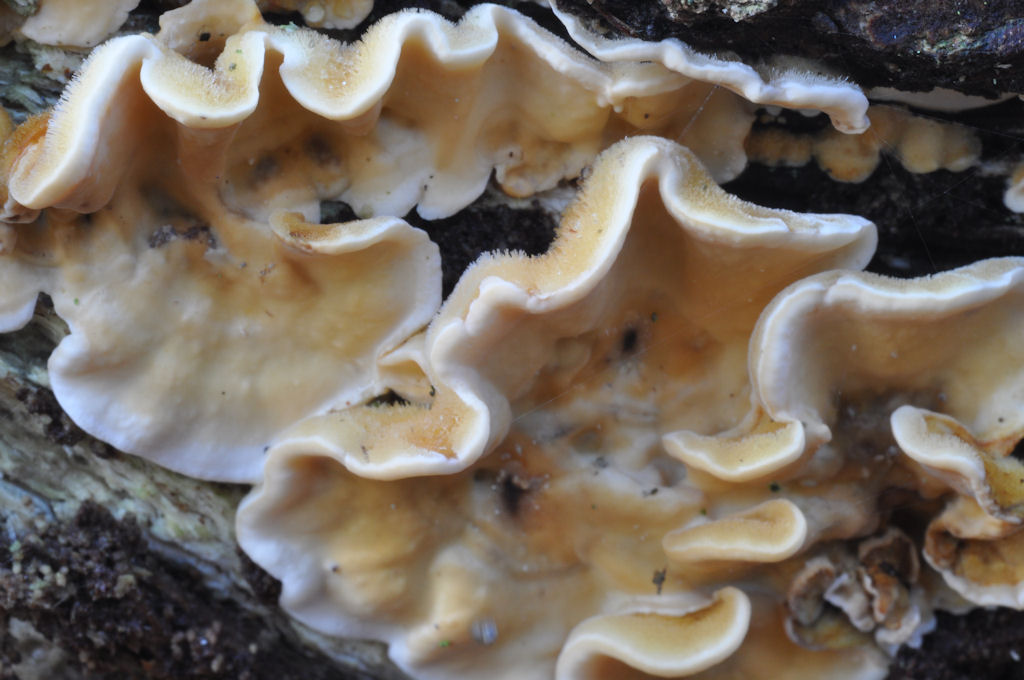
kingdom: Fungi
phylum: Basidiomycota
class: Agaricomycetes
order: Russulales
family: Stereaceae
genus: Stereum
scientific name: Stereum hirsutum
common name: håret lædersvamp
